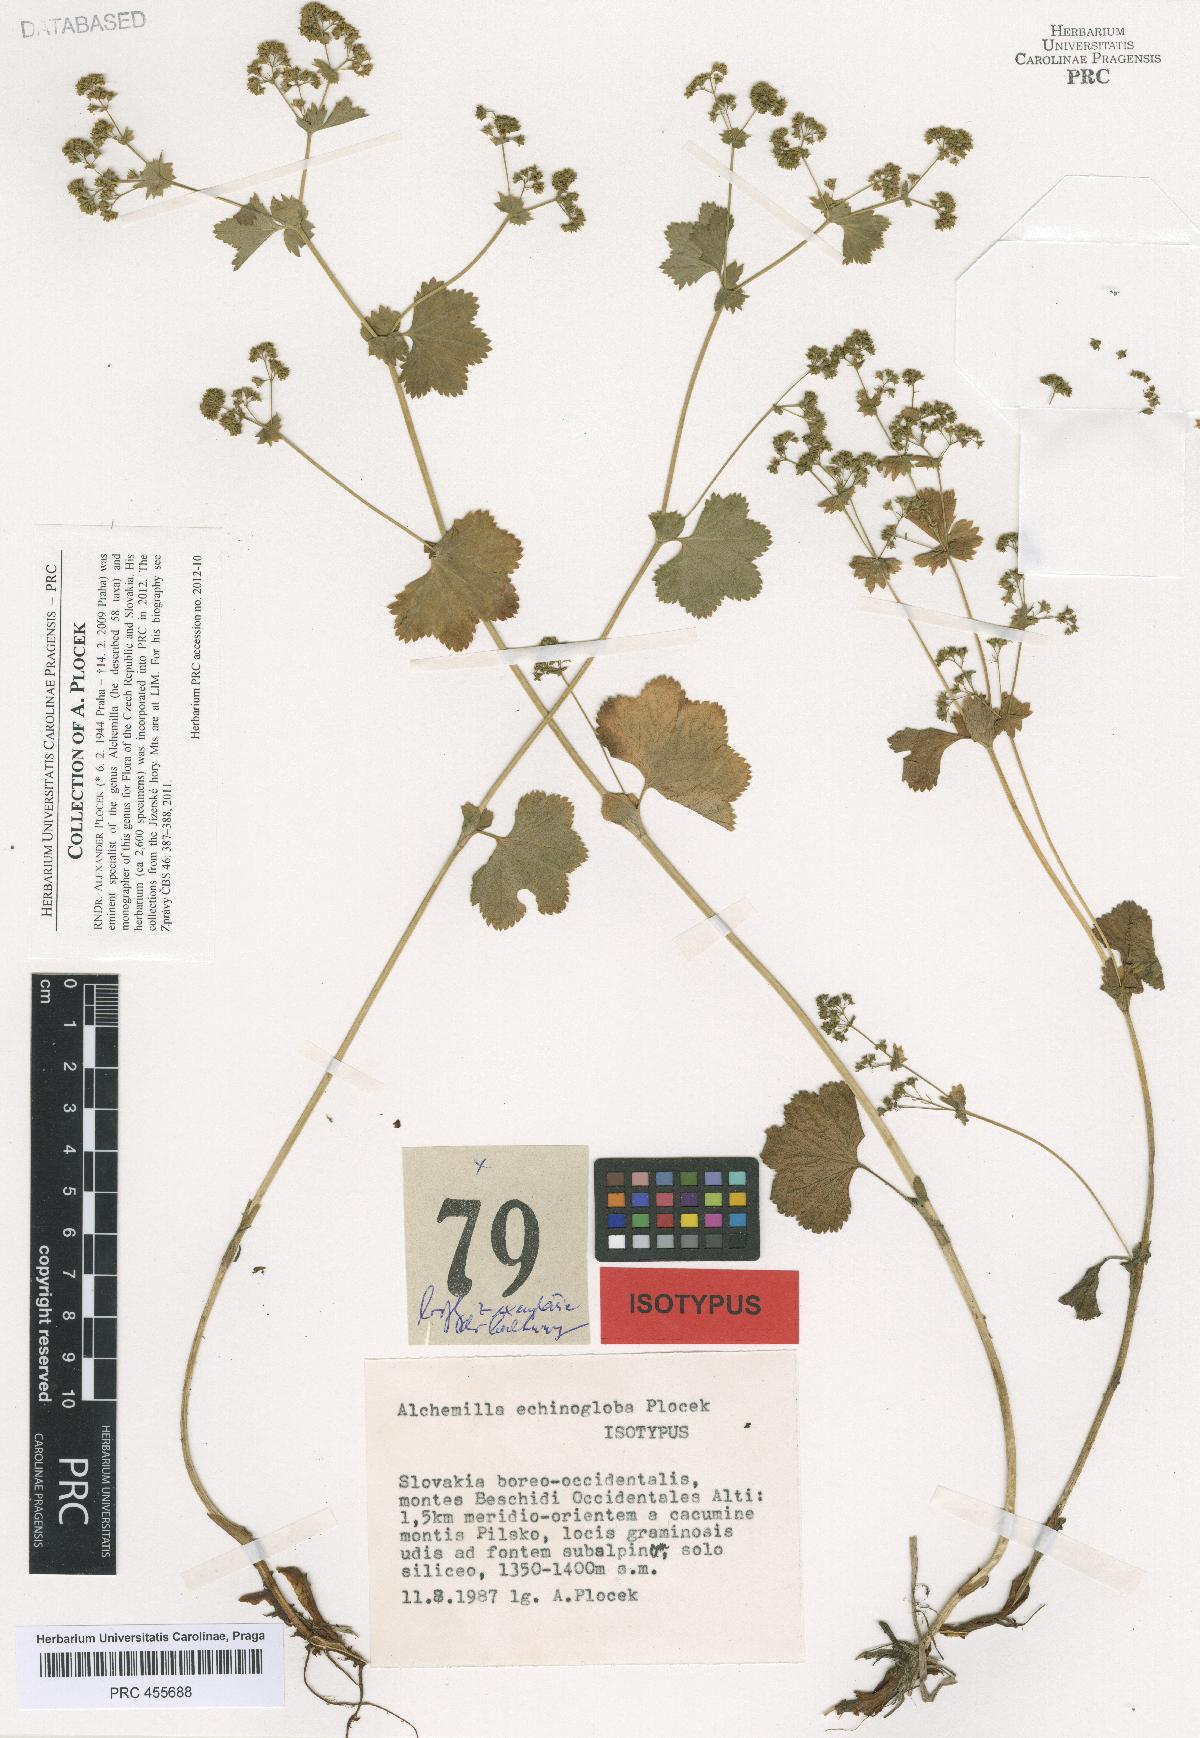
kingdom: Plantae
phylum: Tracheophyta
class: Magnoliopsida
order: Rosales
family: Rosaceae
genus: Alchemilla
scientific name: Alchemilla echinogloba
